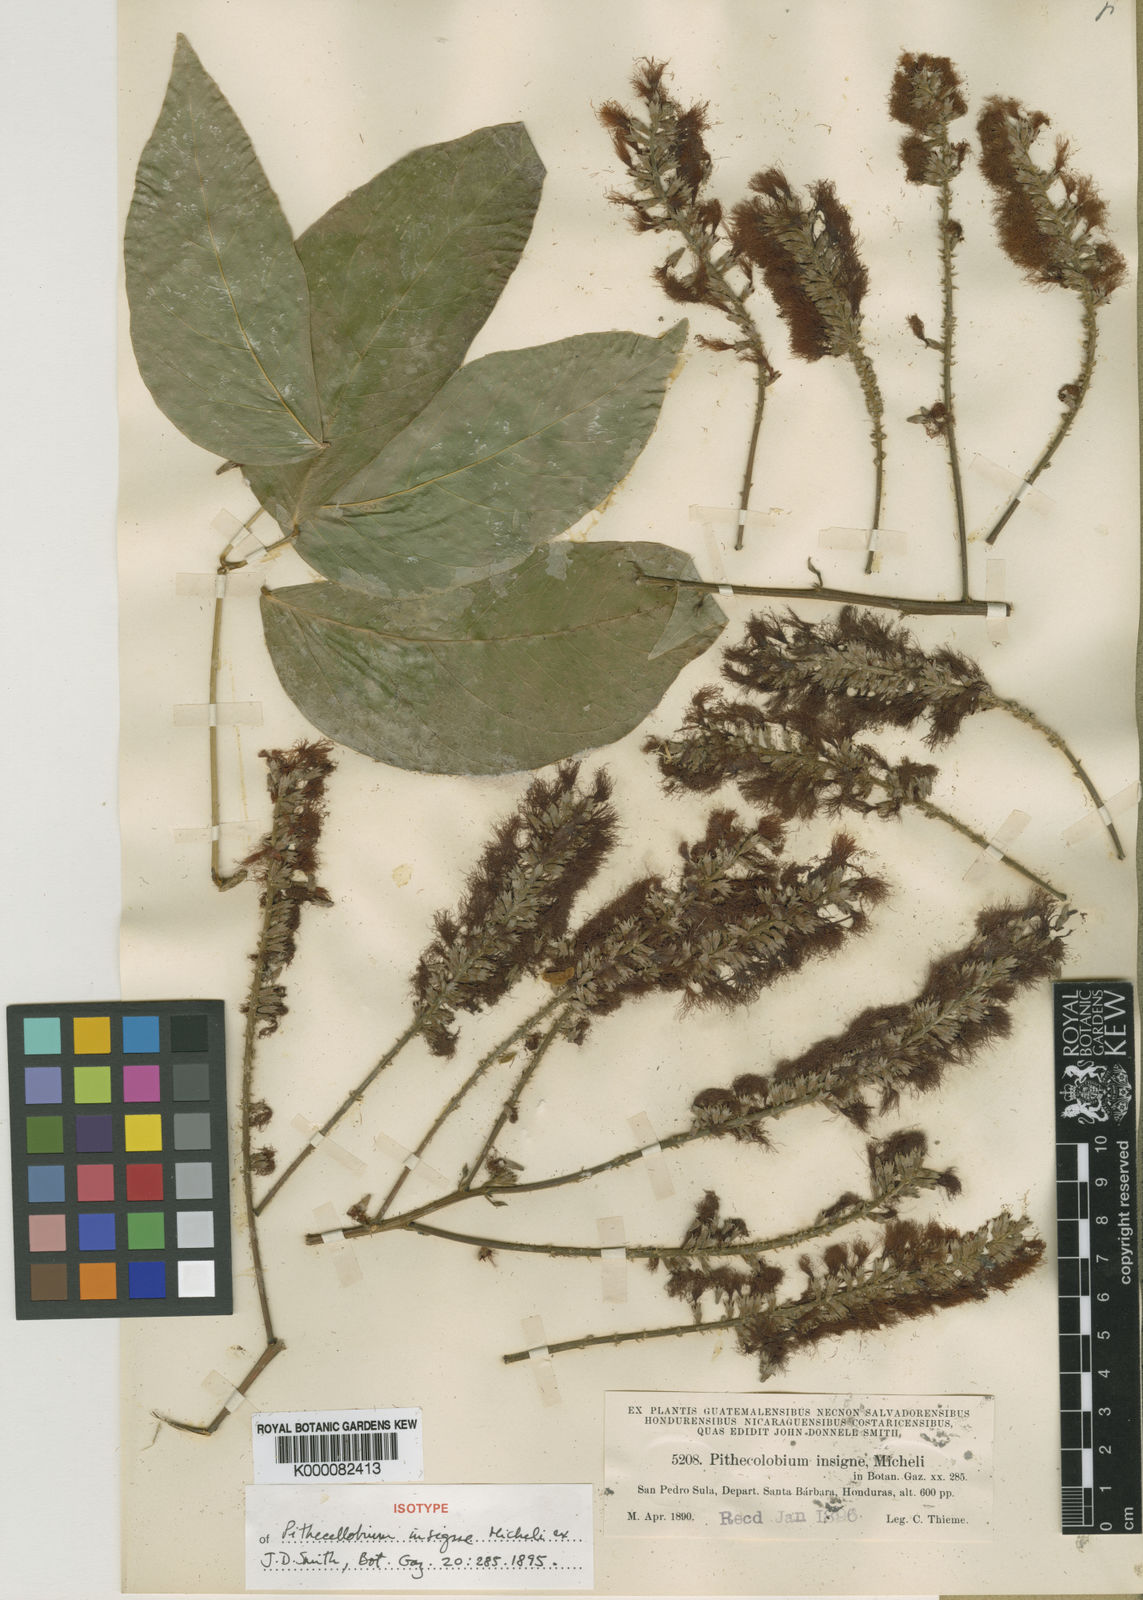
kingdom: Plantae
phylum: Tracheophyta
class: Magnoliopsida
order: Fabales
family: Fabaceae
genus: Pithecellobium
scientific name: Pithecellobium lanceolatum
